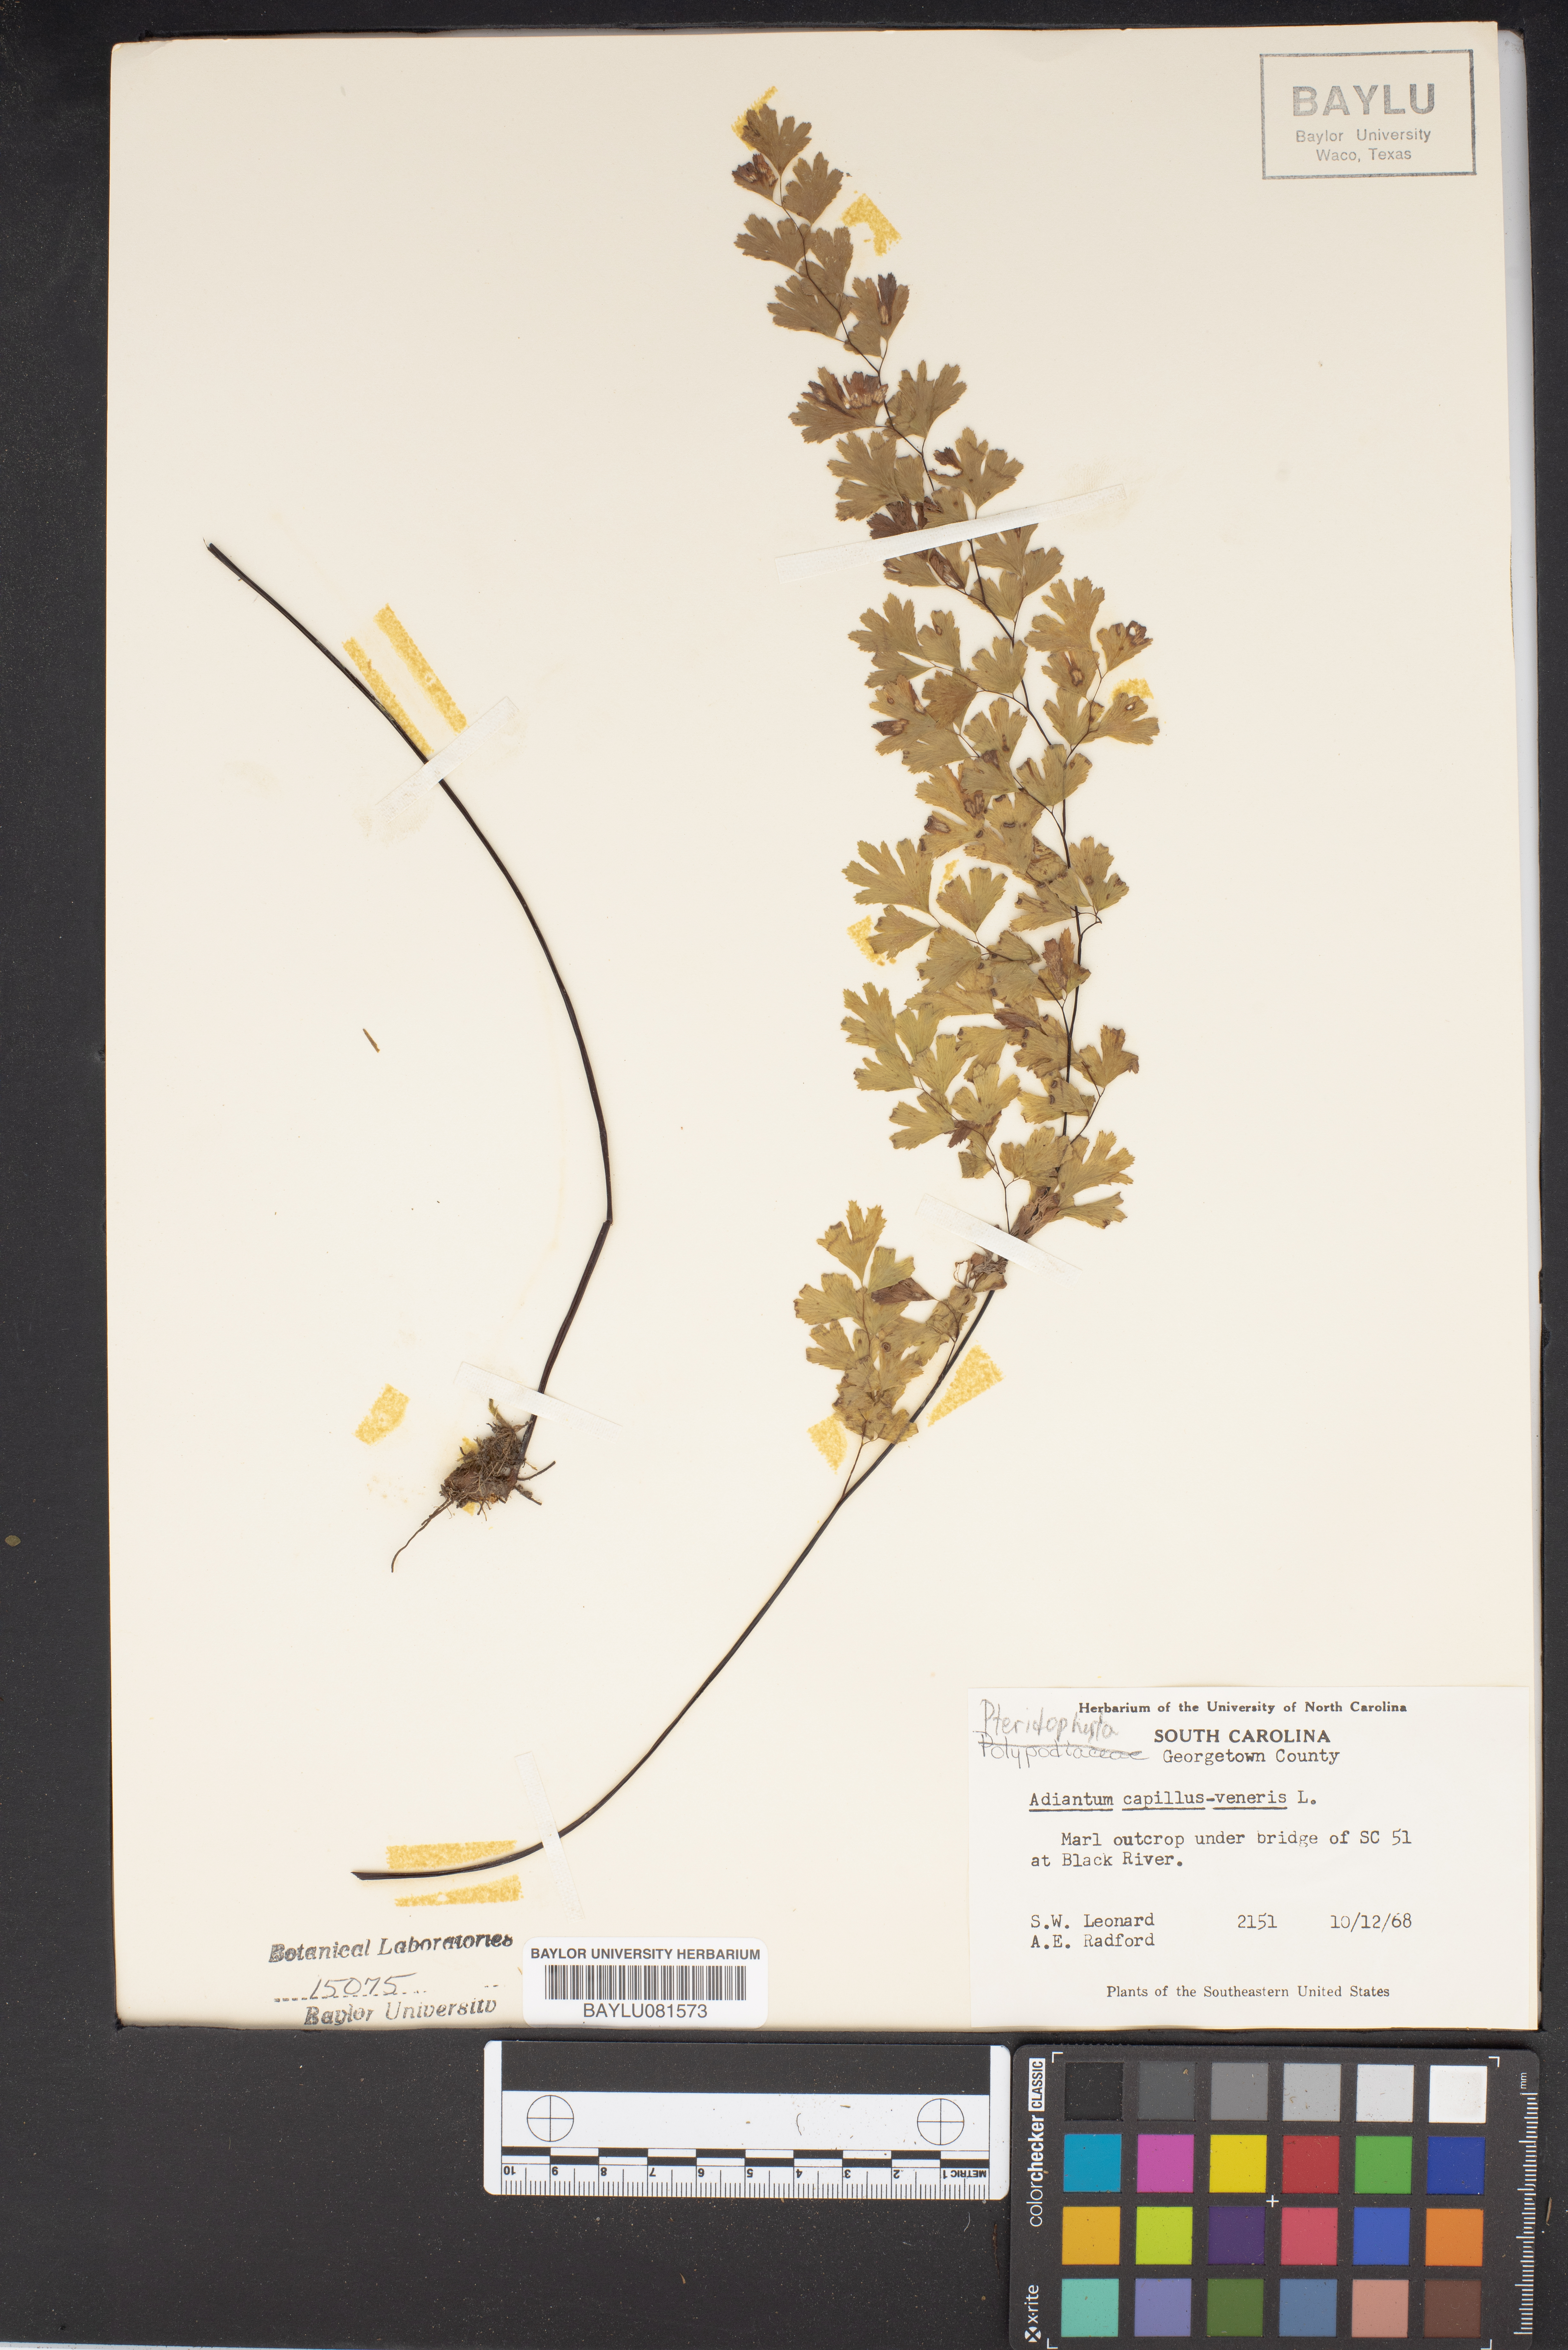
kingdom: Plantae
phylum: Tracheophyta
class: Polypodiopsida
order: Polypodiales
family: Pteridaceae
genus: Adiantum
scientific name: Adiantum capillus-veneris
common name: Maidenhair fern
